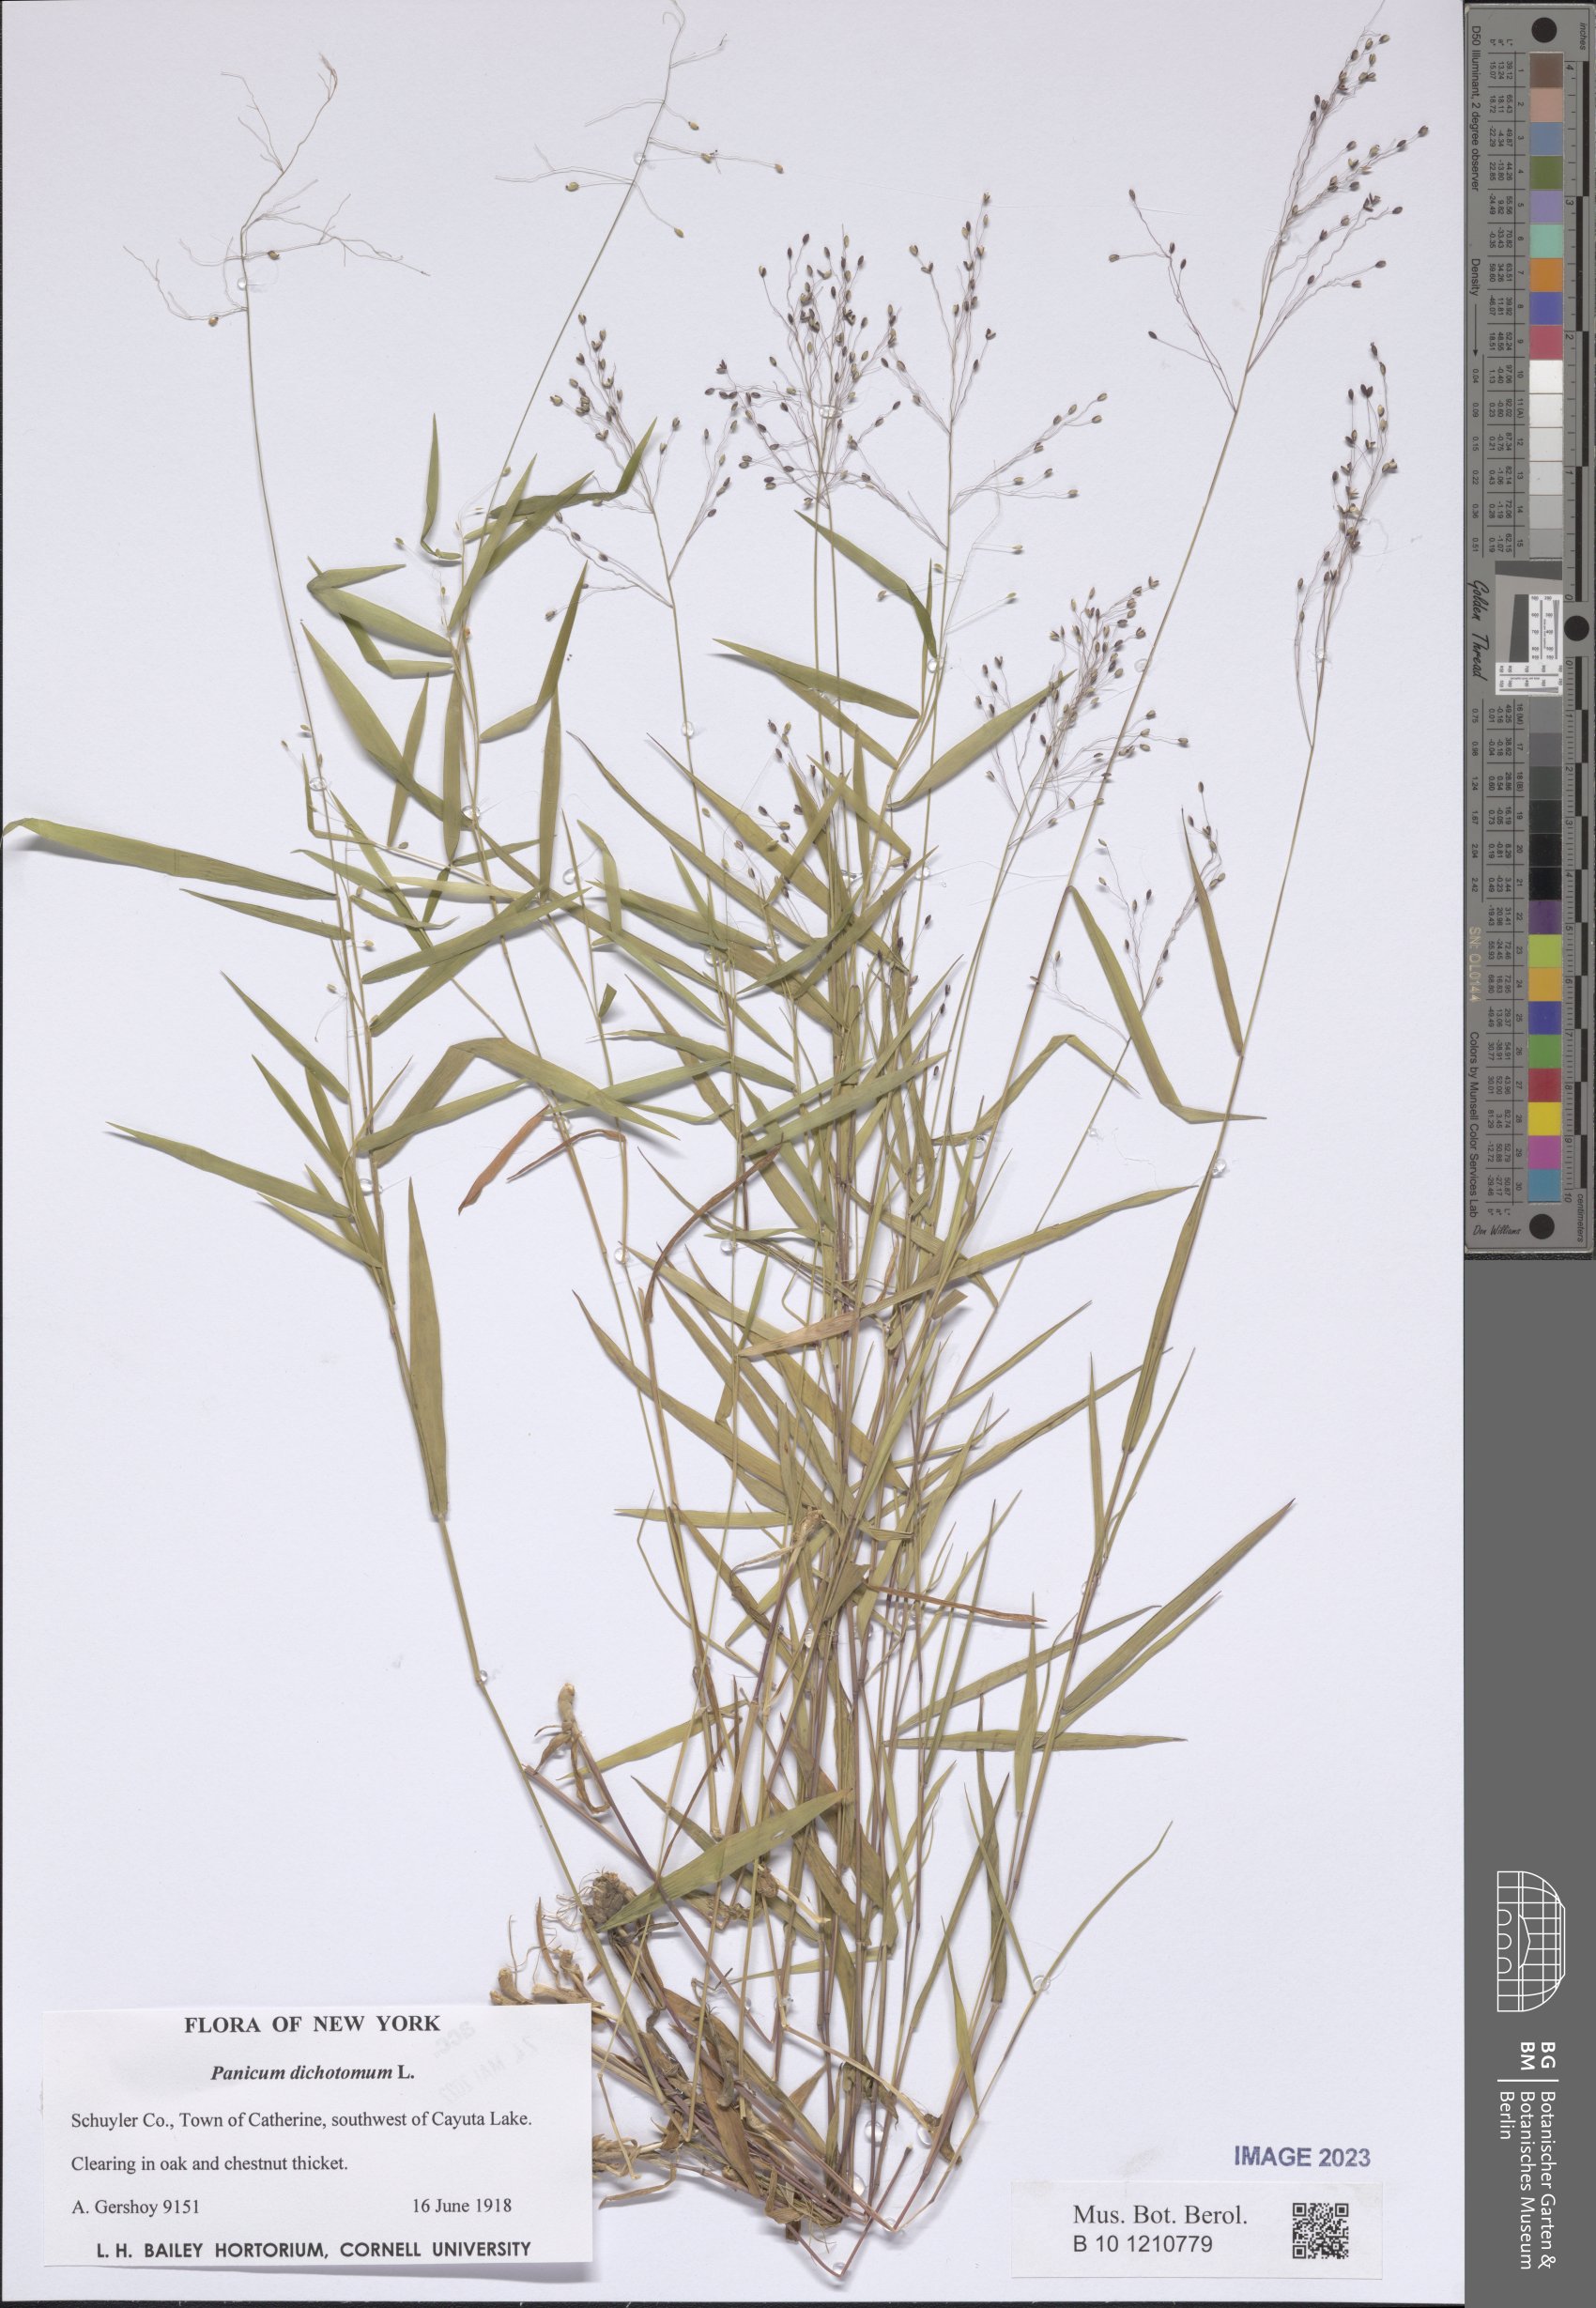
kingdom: Plantae
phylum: Tracheophyta
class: Liliopsida
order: Poales
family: Poaceae
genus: Dichanthelium
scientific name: Dichanthelium dichotomum
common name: Cypress panicgrass
